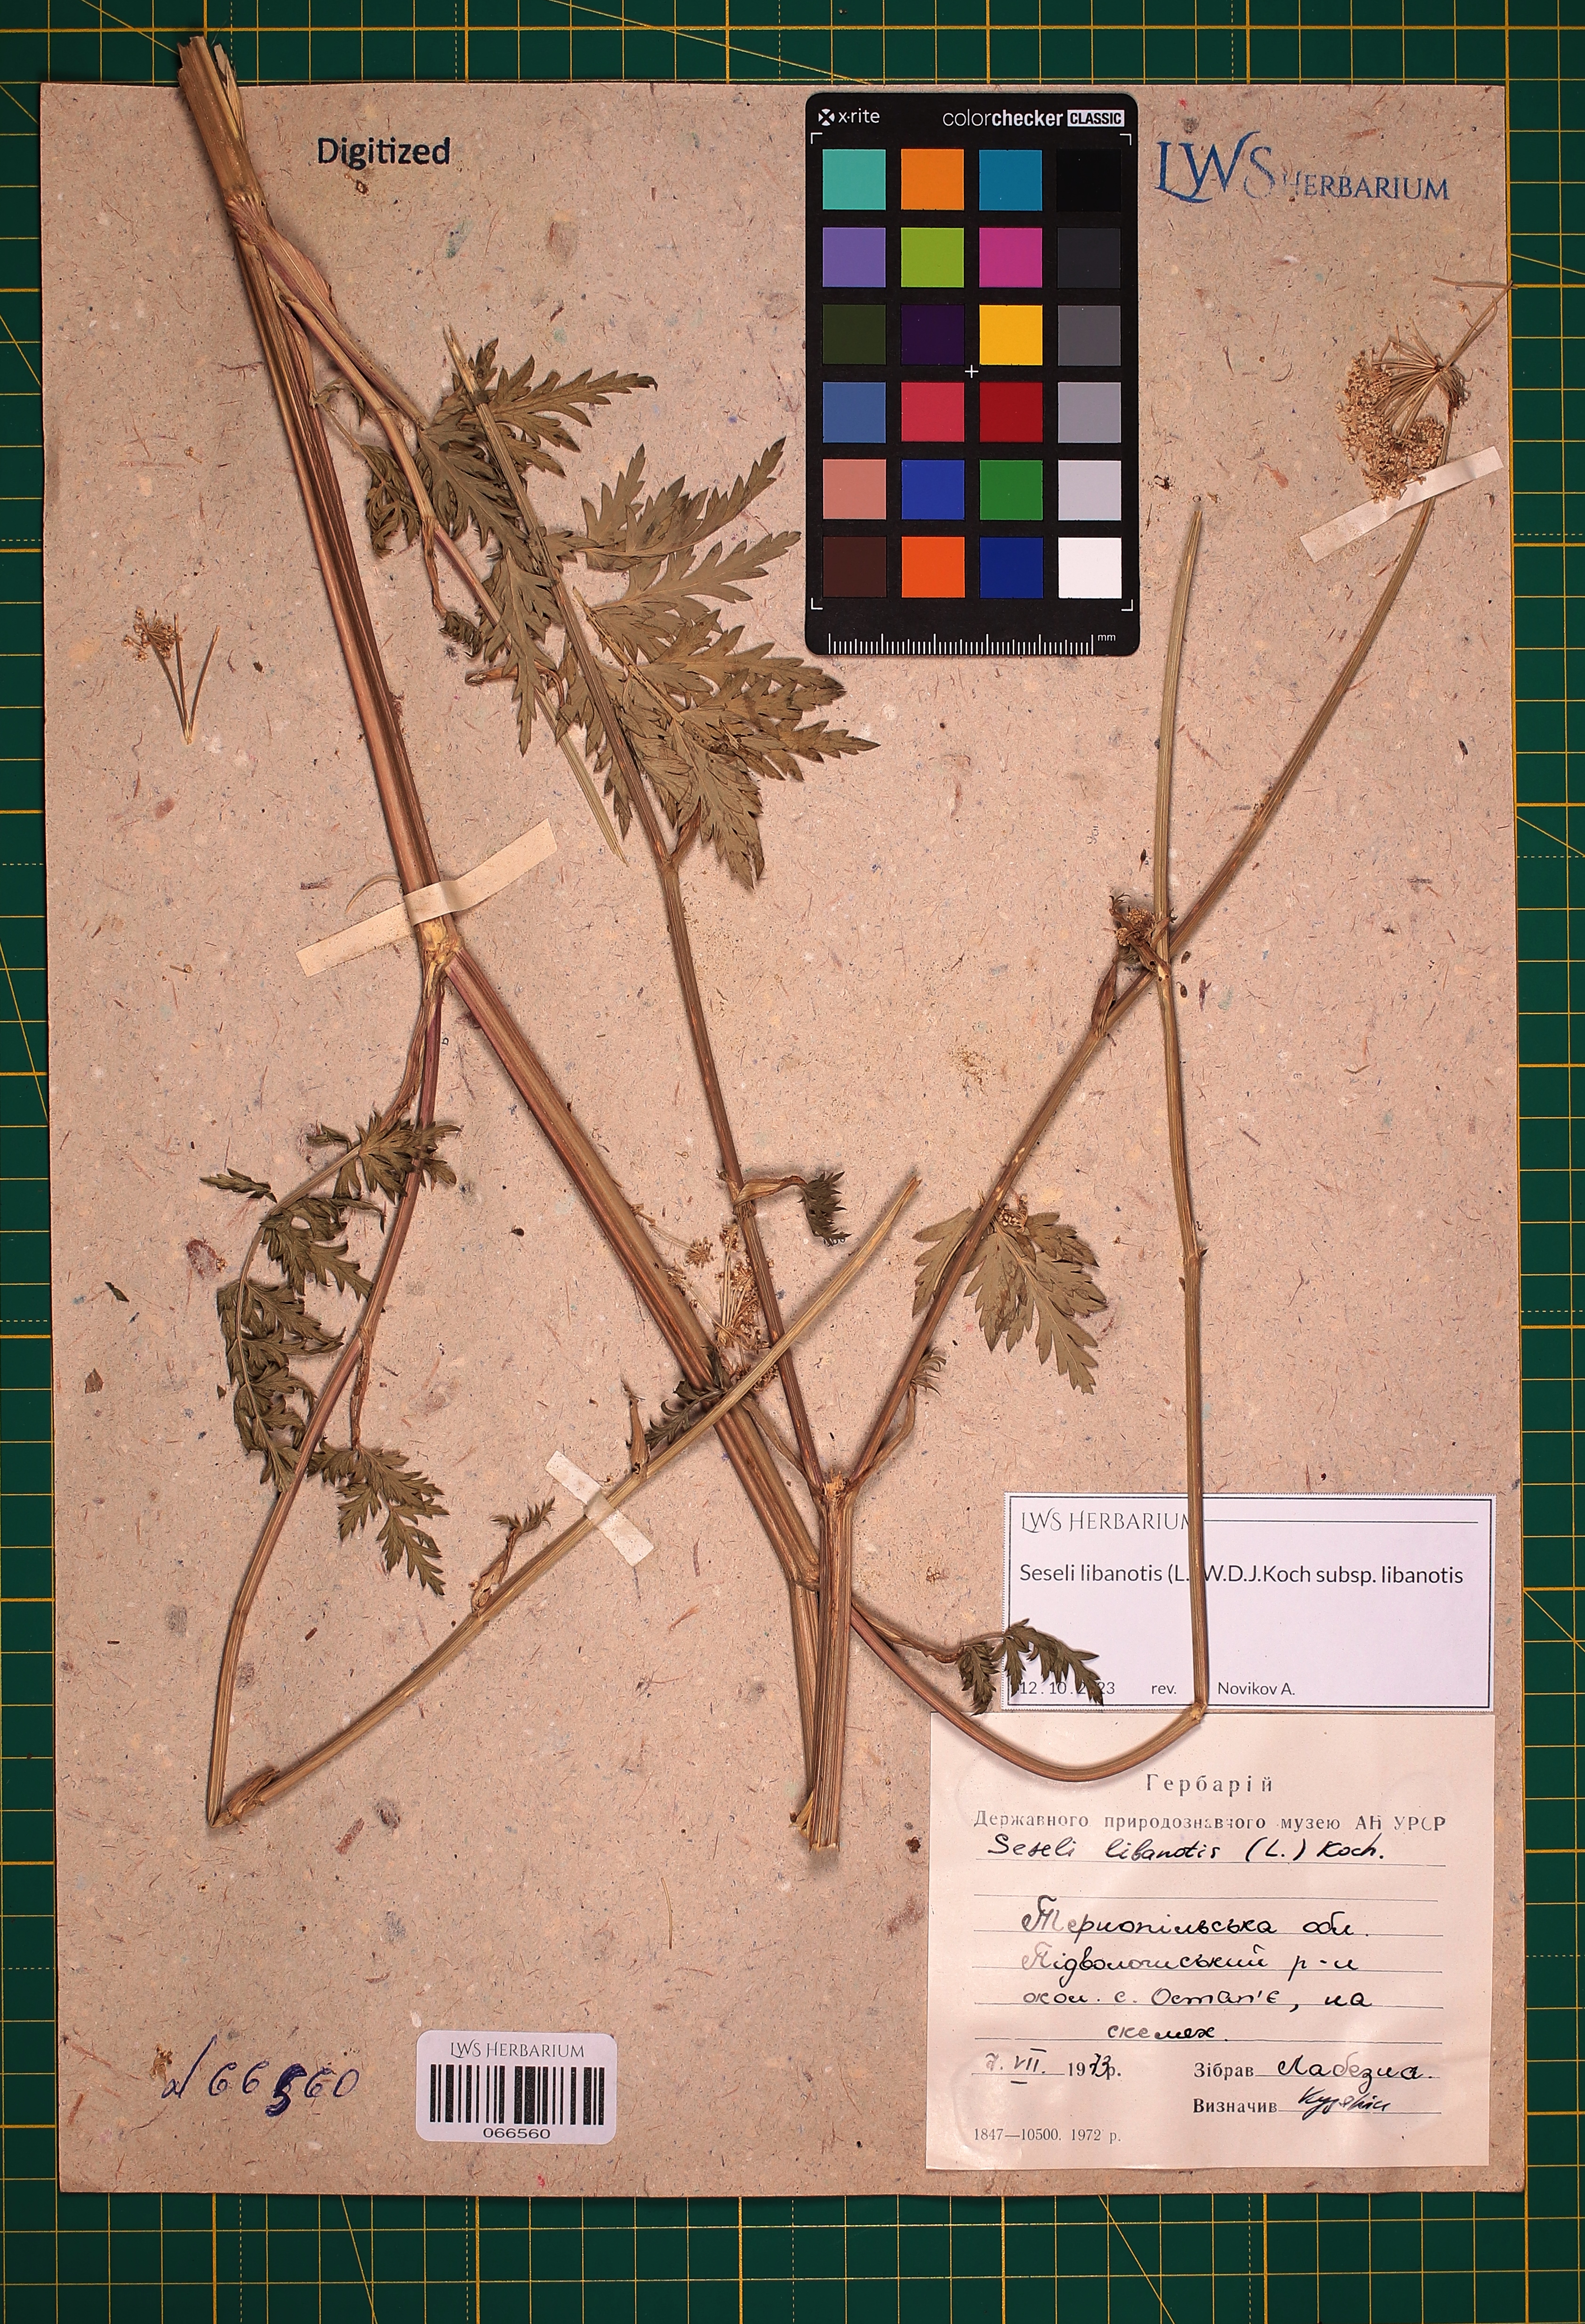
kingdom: Plantae
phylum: Tracheophyta
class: Magnoliopsida
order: Apiales
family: Apiaceae
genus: Seseli
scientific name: Seseli libanotis
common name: Mooncarrot
